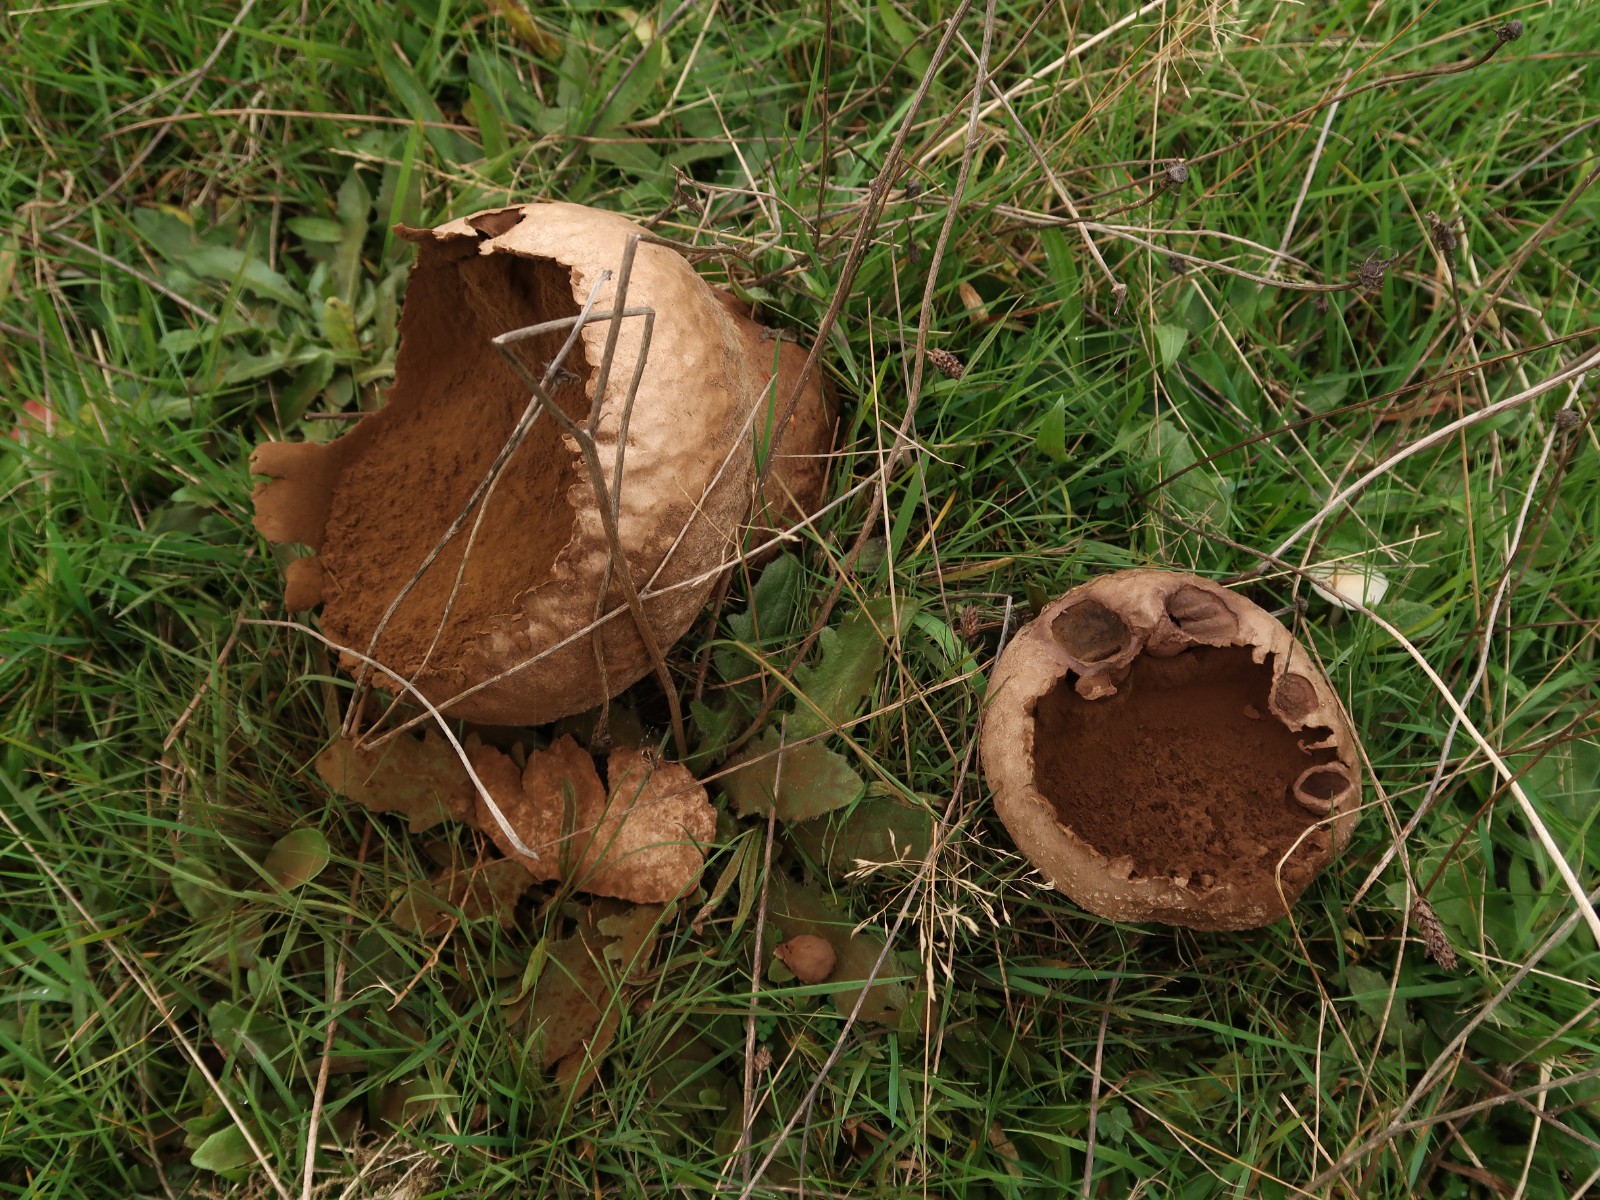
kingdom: Fungi
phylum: Basidiomycota
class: Agaricomycetes
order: Agaricales
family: Lycoperdaceae
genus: Bovistella
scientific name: Bovistella utriformis
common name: skællet støvbold
